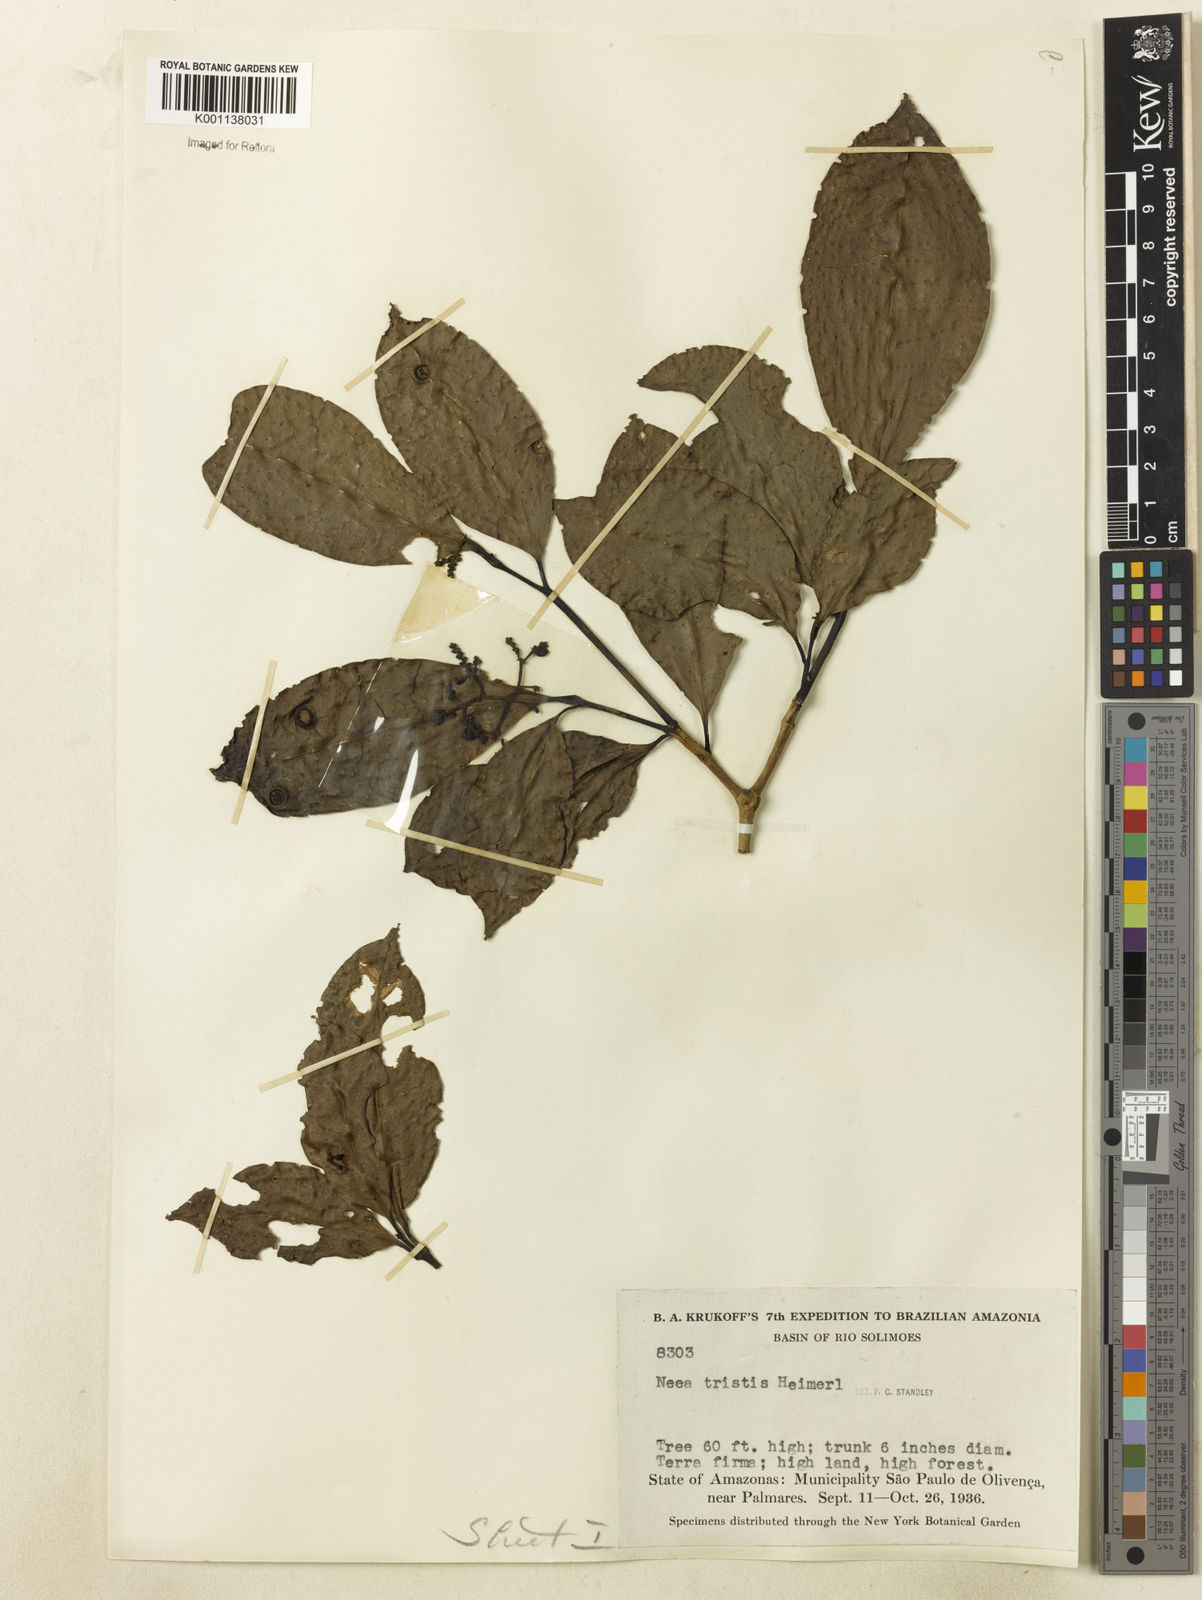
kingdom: Plantae
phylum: Tracheophyta
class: Magnoliopsida
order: Caryophyllales
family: Nyctaginaceae
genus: Neea
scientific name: Neea tristis
